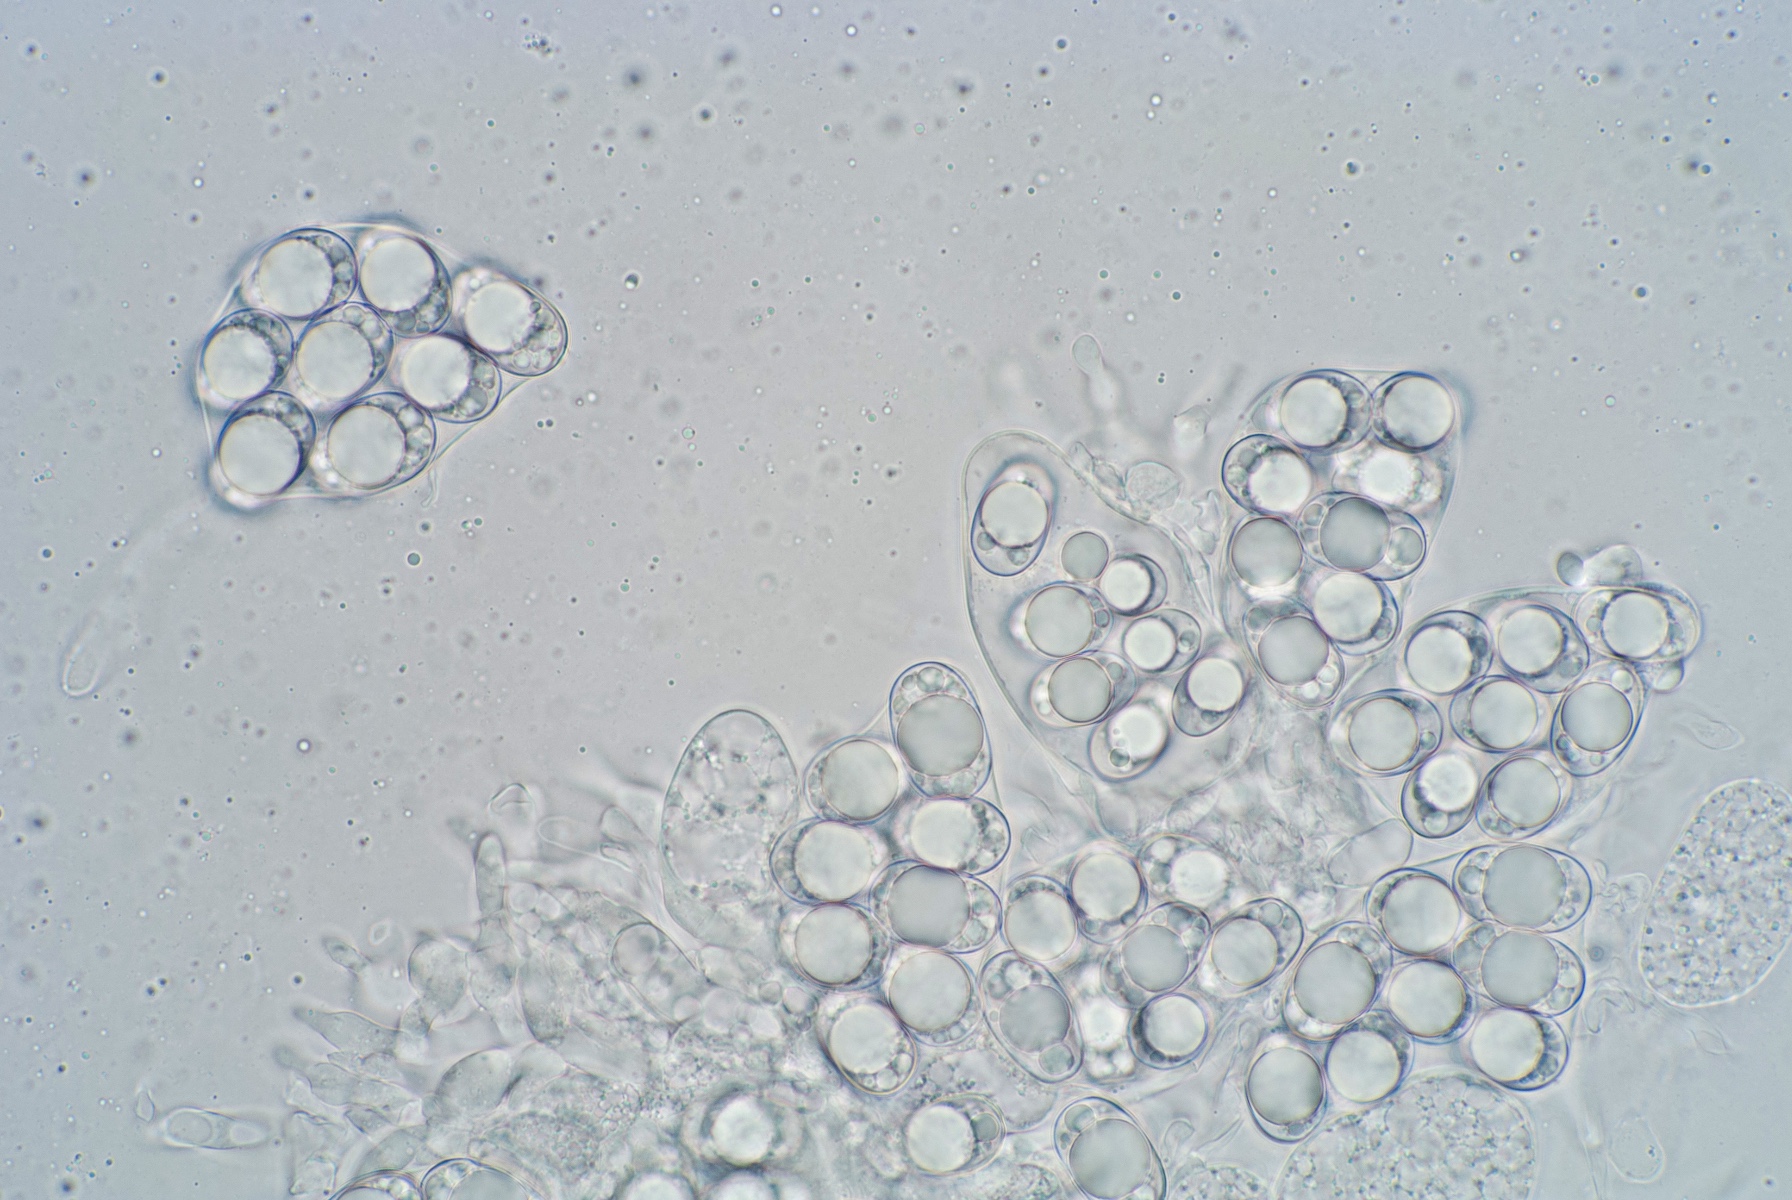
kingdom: Fungi
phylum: Ascomycota
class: Pezizomycetes
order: Pezizales
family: Helvellaceae
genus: Balsamia
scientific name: Balsamia polysperma
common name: bredsporet nøddetrøffel
